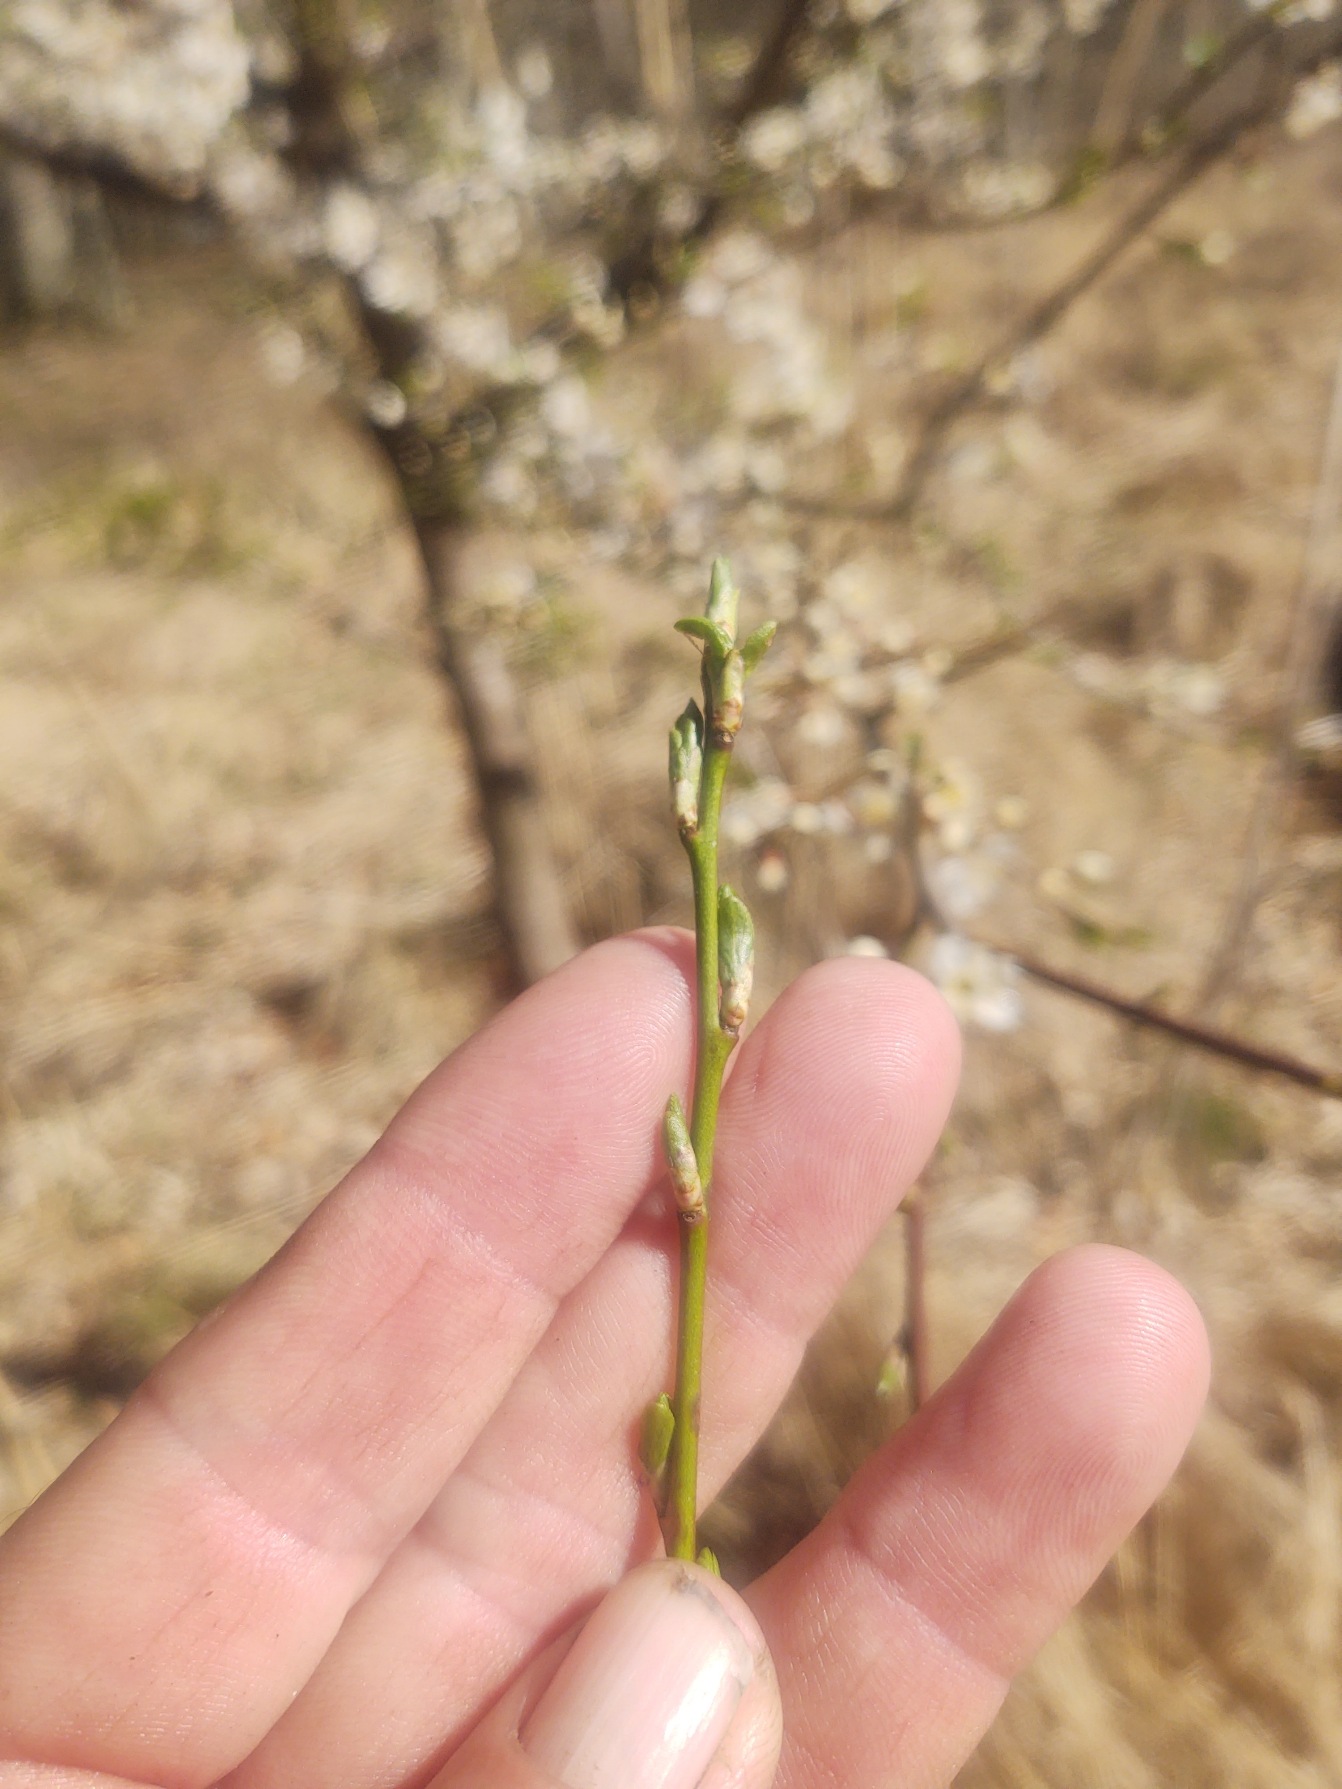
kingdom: Plantae
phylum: Tracheophyta
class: Magnoliopsida
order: Rosales
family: Rosaceae
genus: Prunus
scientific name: Prunus cerasifera
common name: Mirabel
